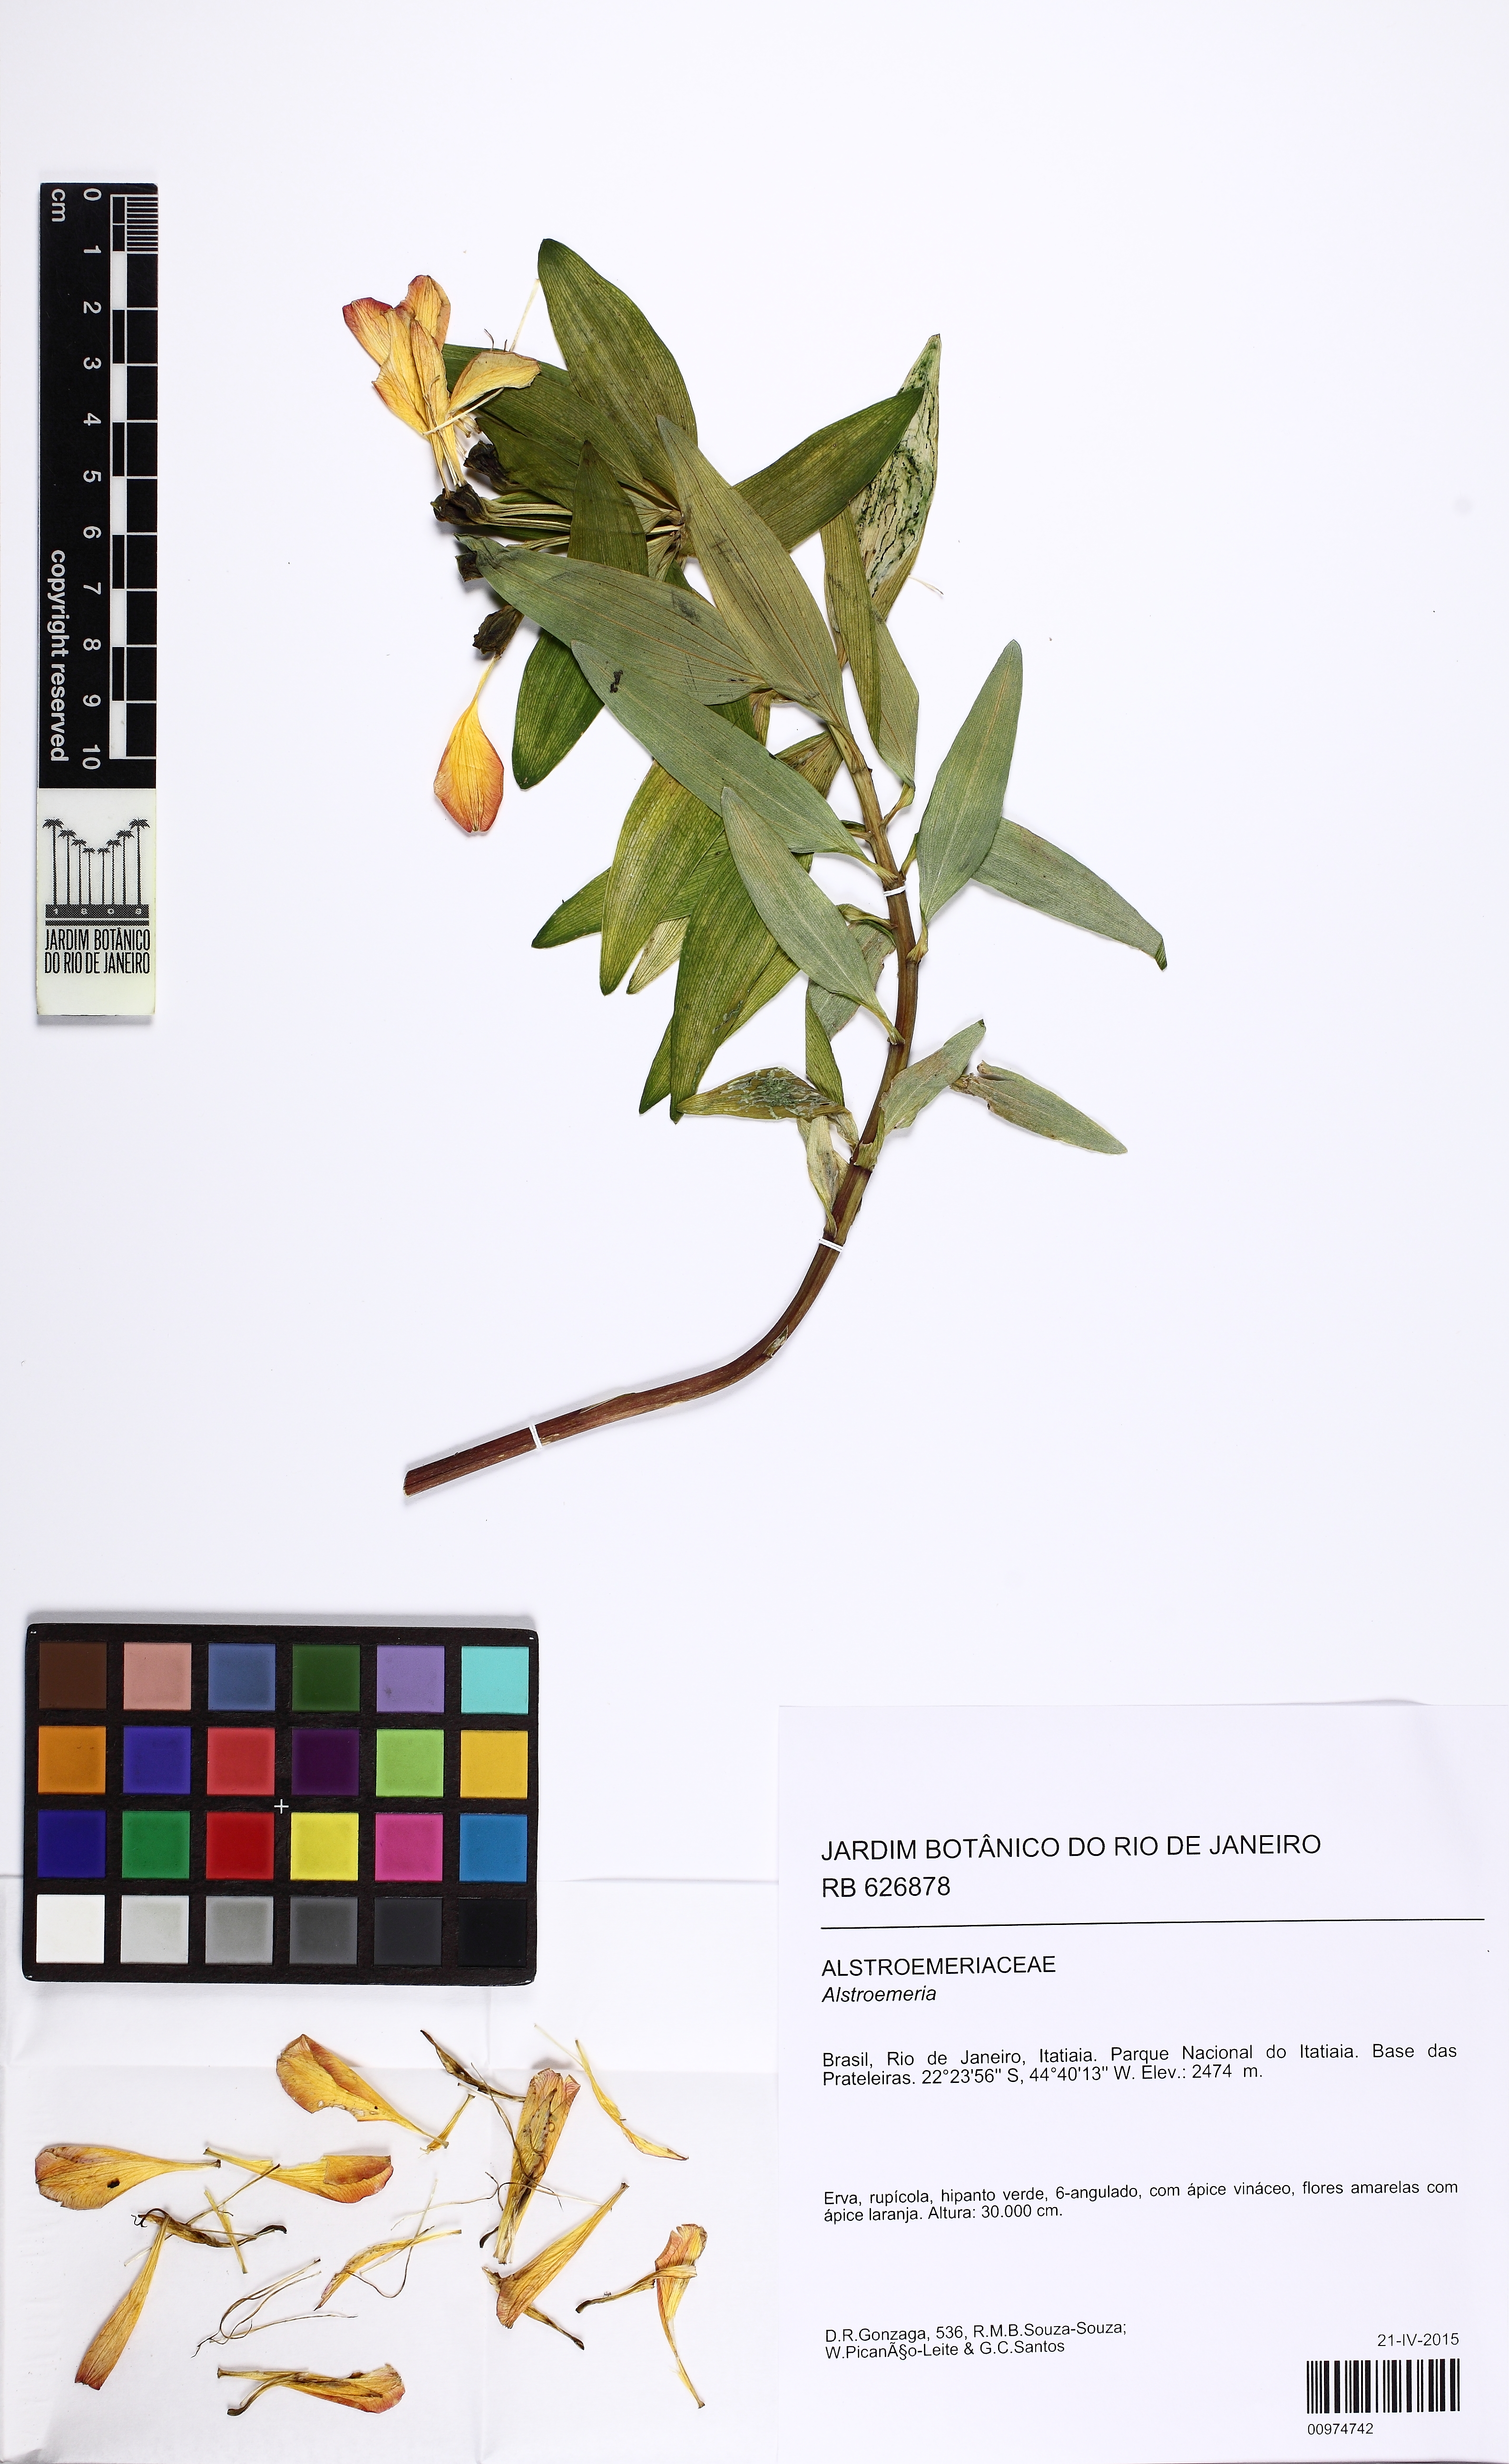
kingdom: Plantae
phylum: Tracheophyta
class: Liliopsida
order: Liliales
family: Alstroemeriaceae
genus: Alstroemeria
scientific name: Alstroemeria
